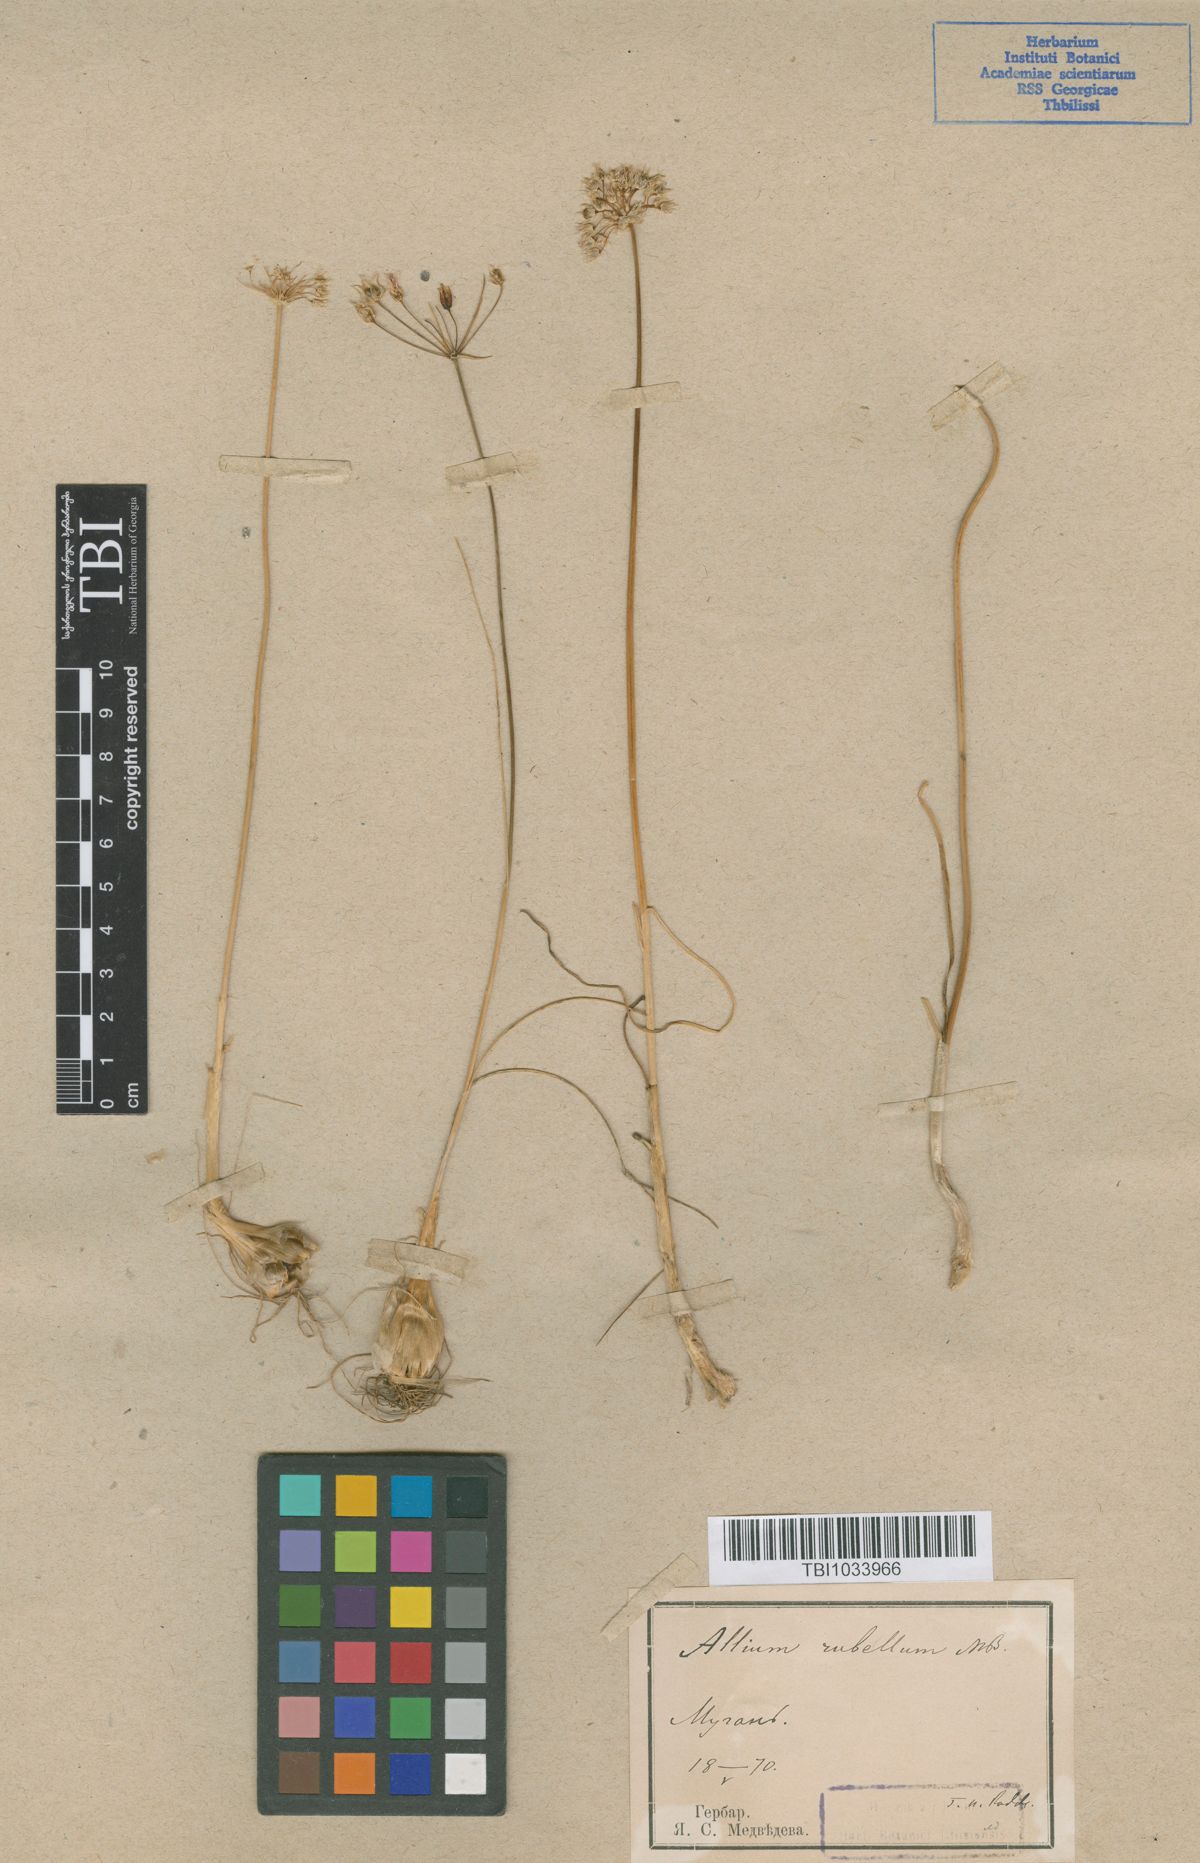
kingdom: Plantae
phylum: Tracheophyta
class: Liliopsida
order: Asparagales
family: Amaryllidaceae
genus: Allium
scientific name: Allium rubellum
